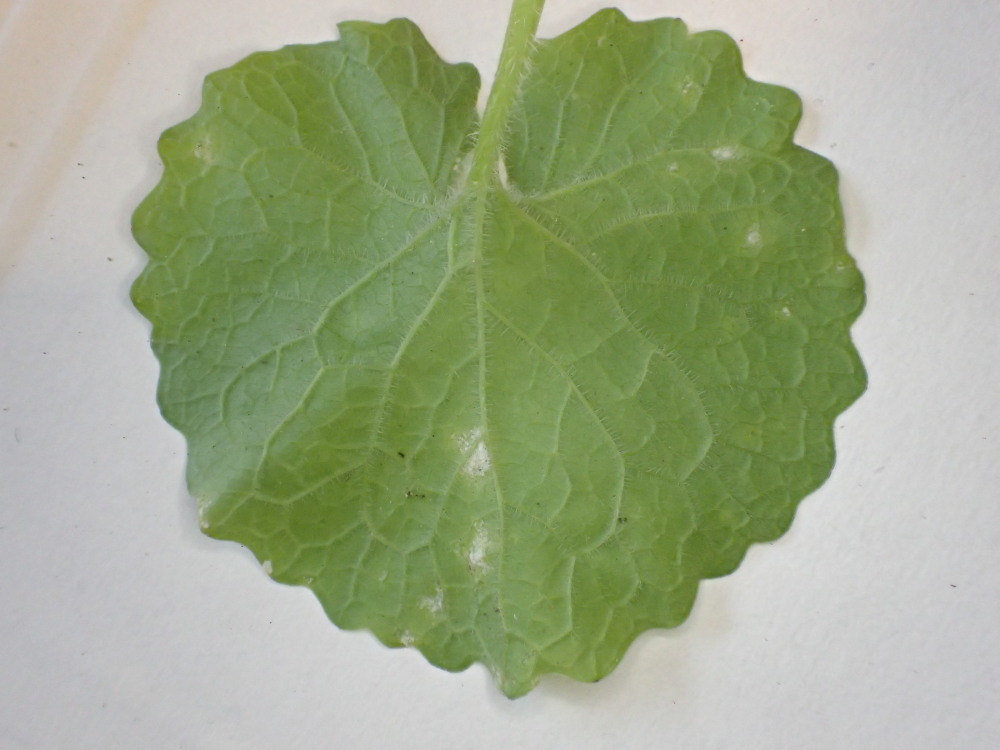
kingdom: Chromista
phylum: Oomycota
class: Peronosporea
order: Peronosporales
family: Peronosporaceae
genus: Hyaloperonospora
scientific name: Hyaloperonospora niessliana
